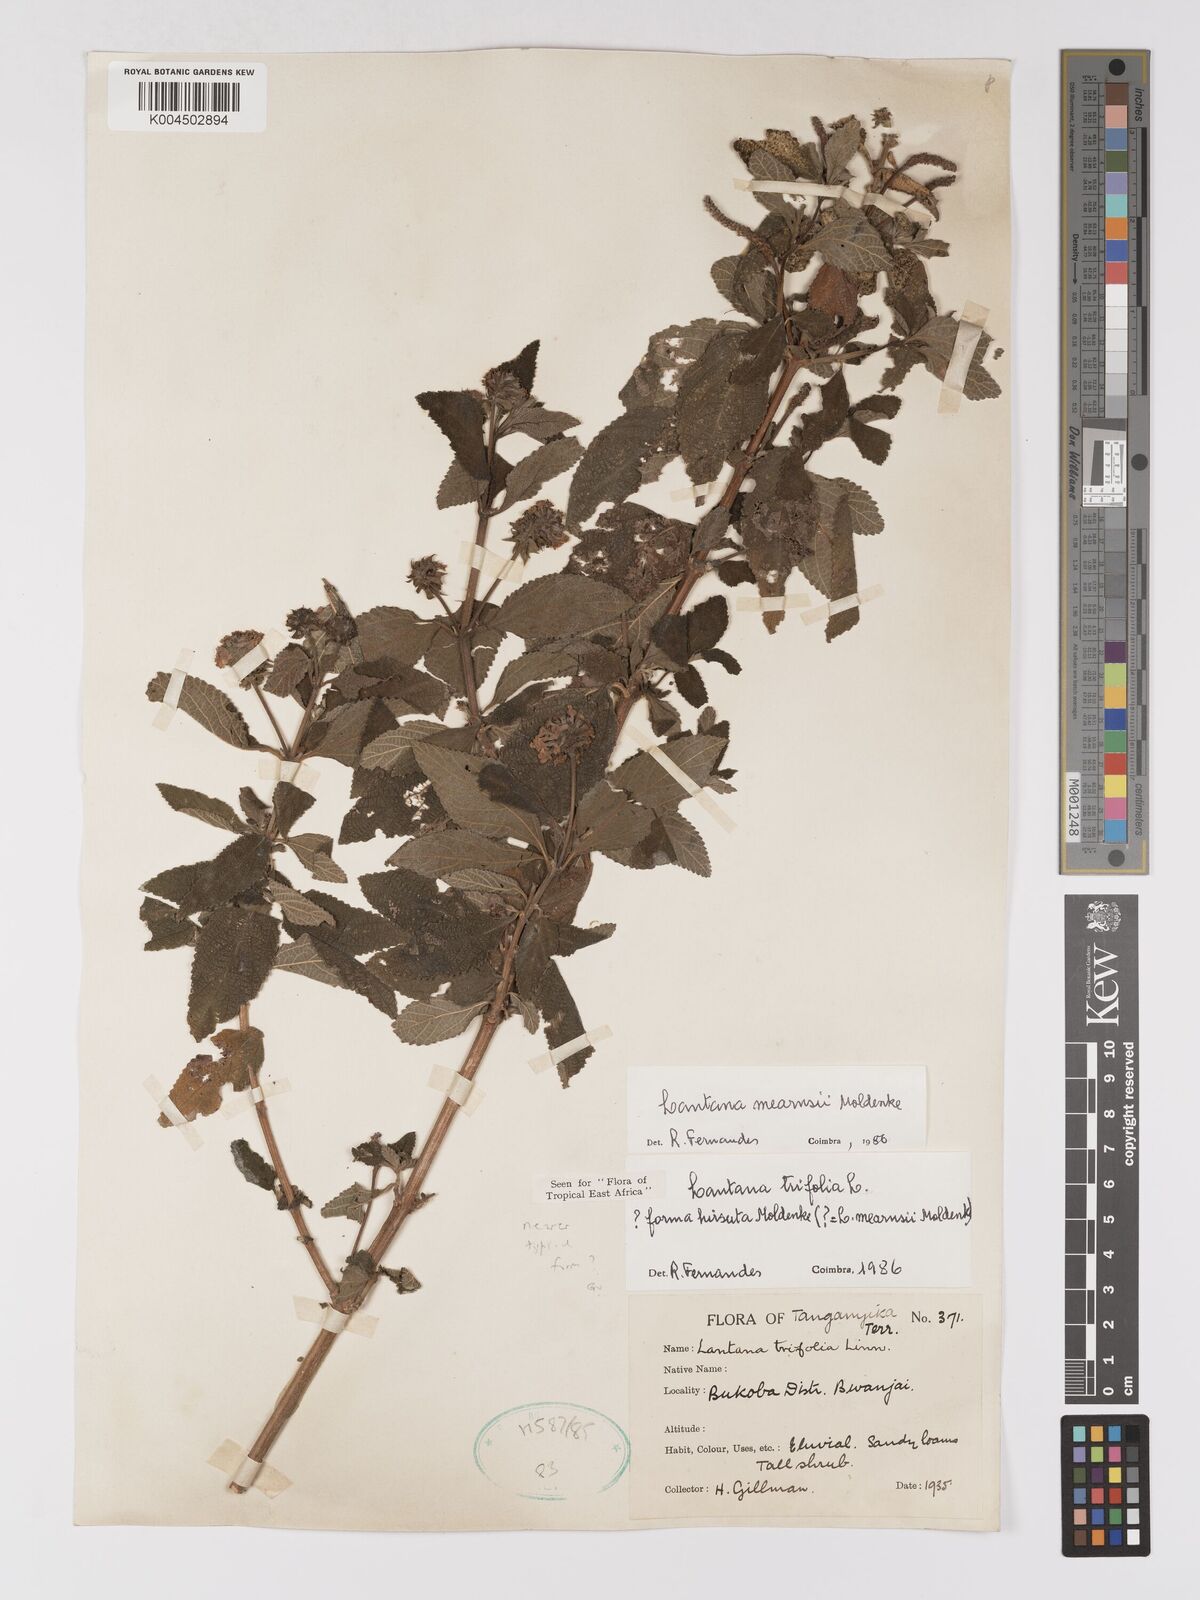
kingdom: Plantae
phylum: Tracheophyta
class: Magnoliopsida
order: Lamiales
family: Verbenaceae
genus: Lantana
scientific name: Lantana trifolia
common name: Sweet-sage
